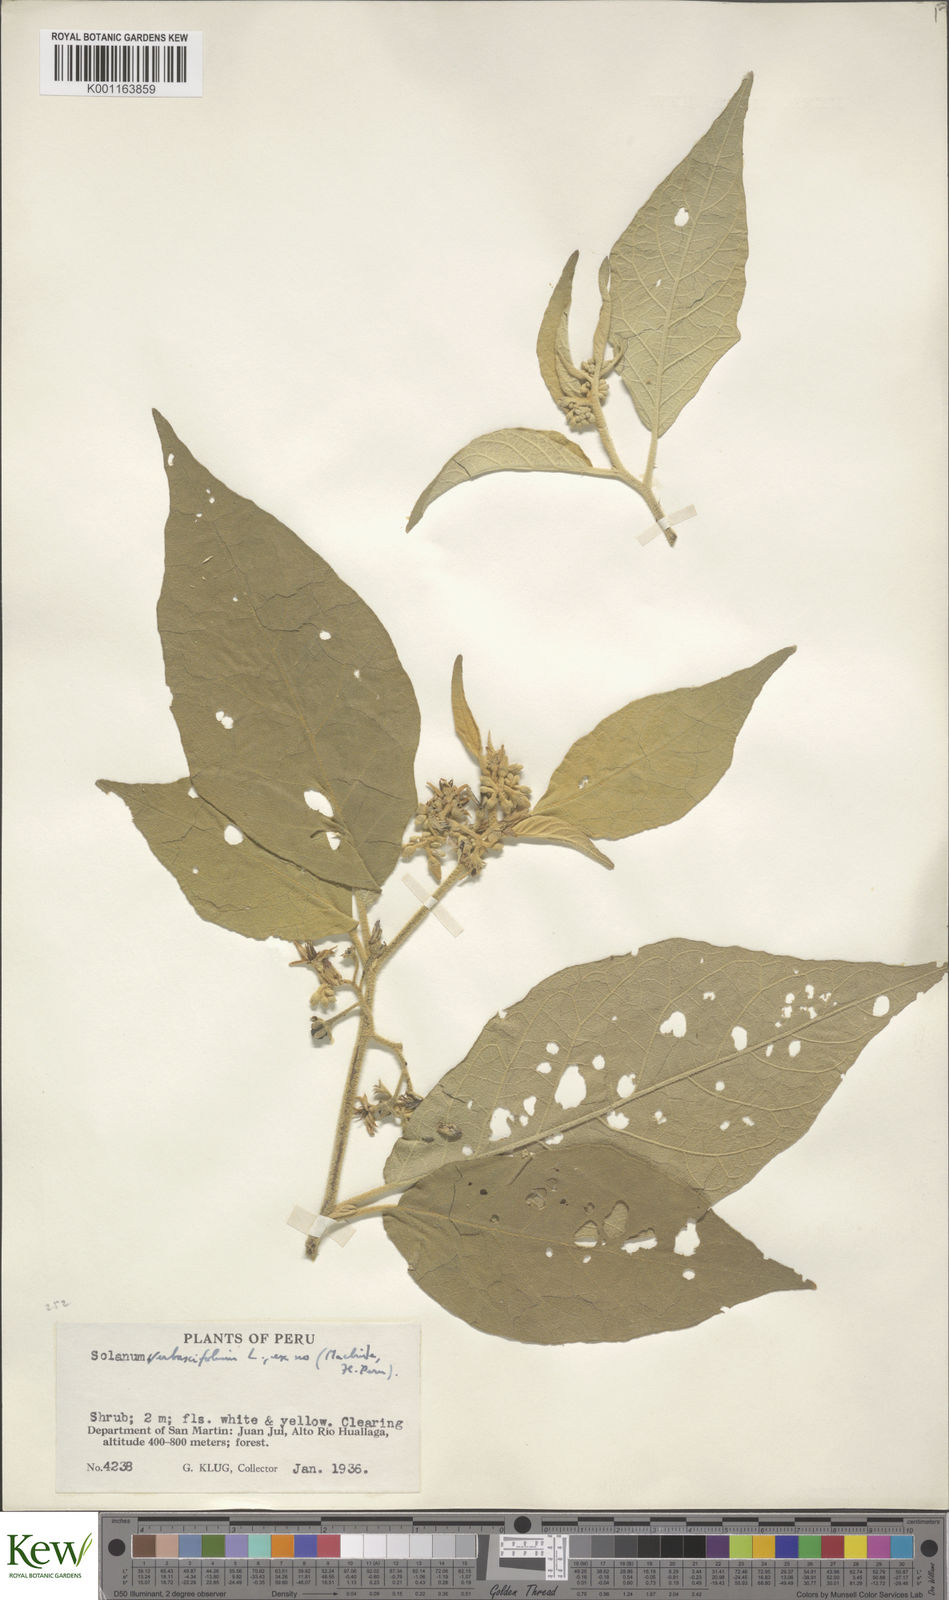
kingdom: Plantae
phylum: Tracheophyta
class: Magnoliopsida
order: Solanales
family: Solanaceae
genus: Solanum
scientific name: Solanum erianthum
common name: Tobacco-tree
